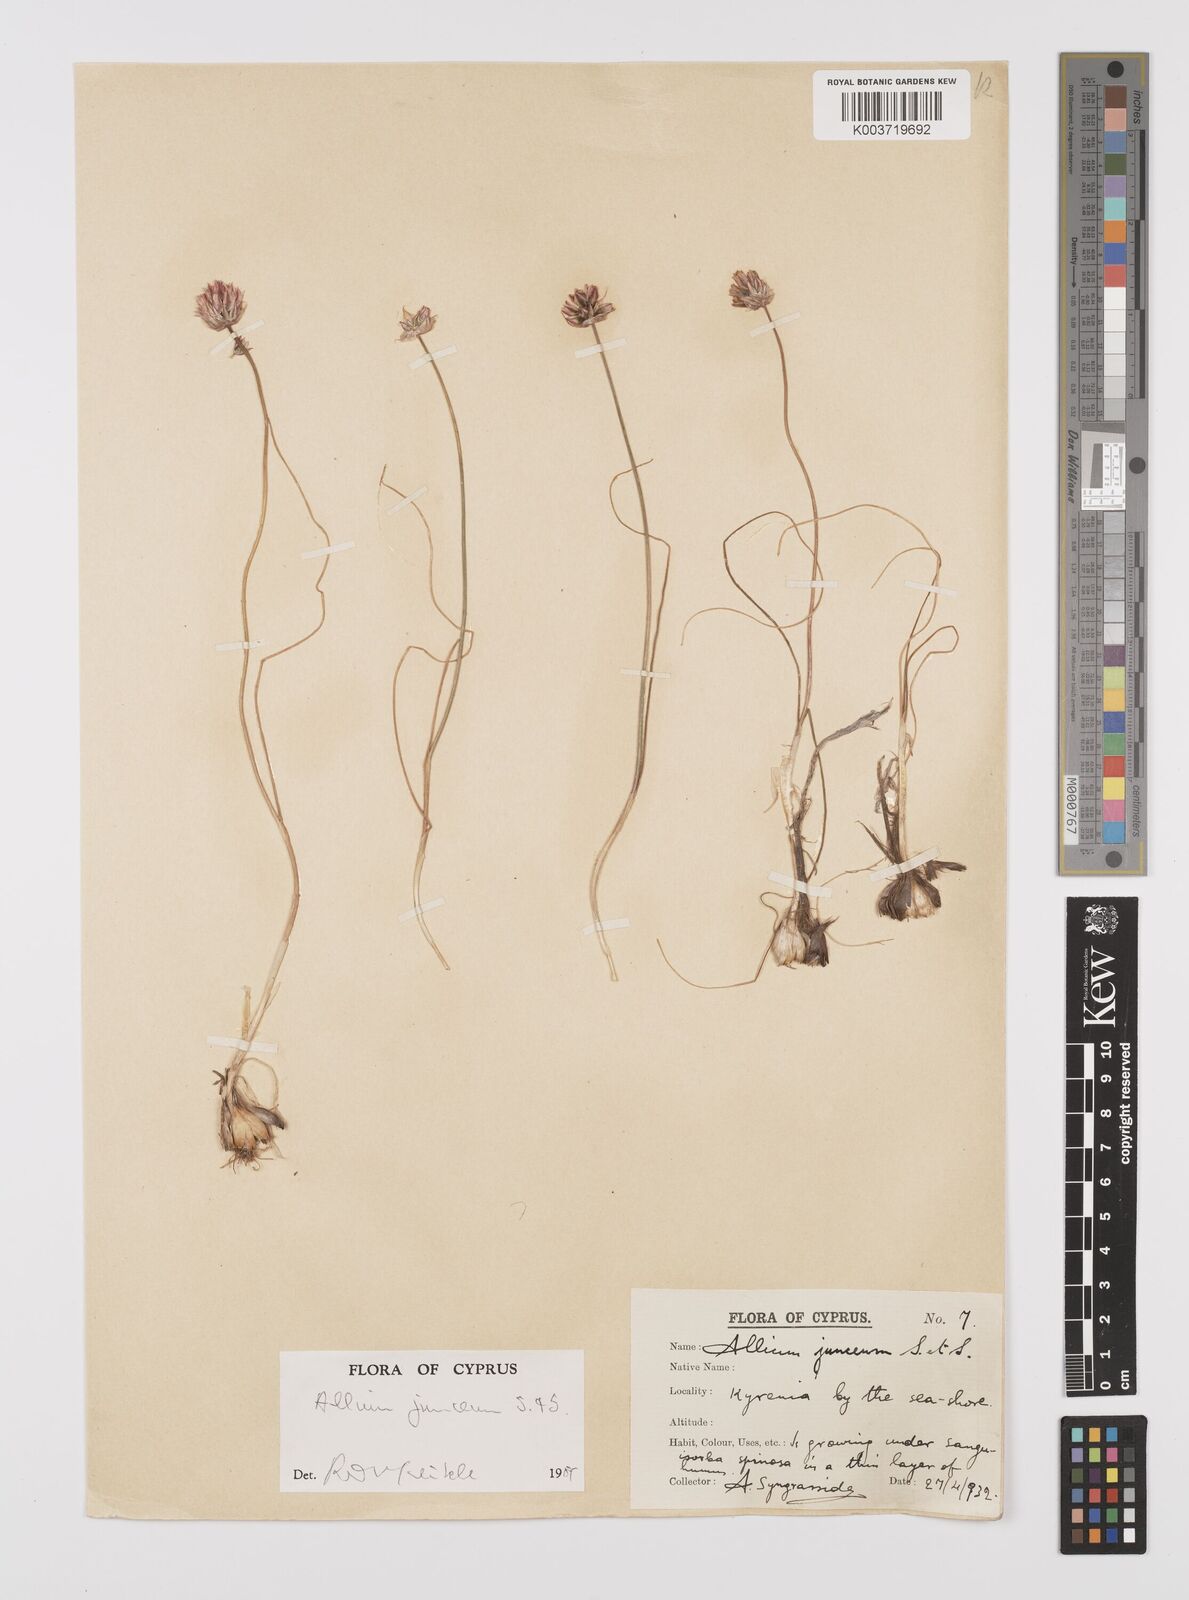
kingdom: Plantae
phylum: Tracheophyta
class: Liliopsida
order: Asparagales
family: Amaryllidaceae
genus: Allium
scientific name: Allium junceum
